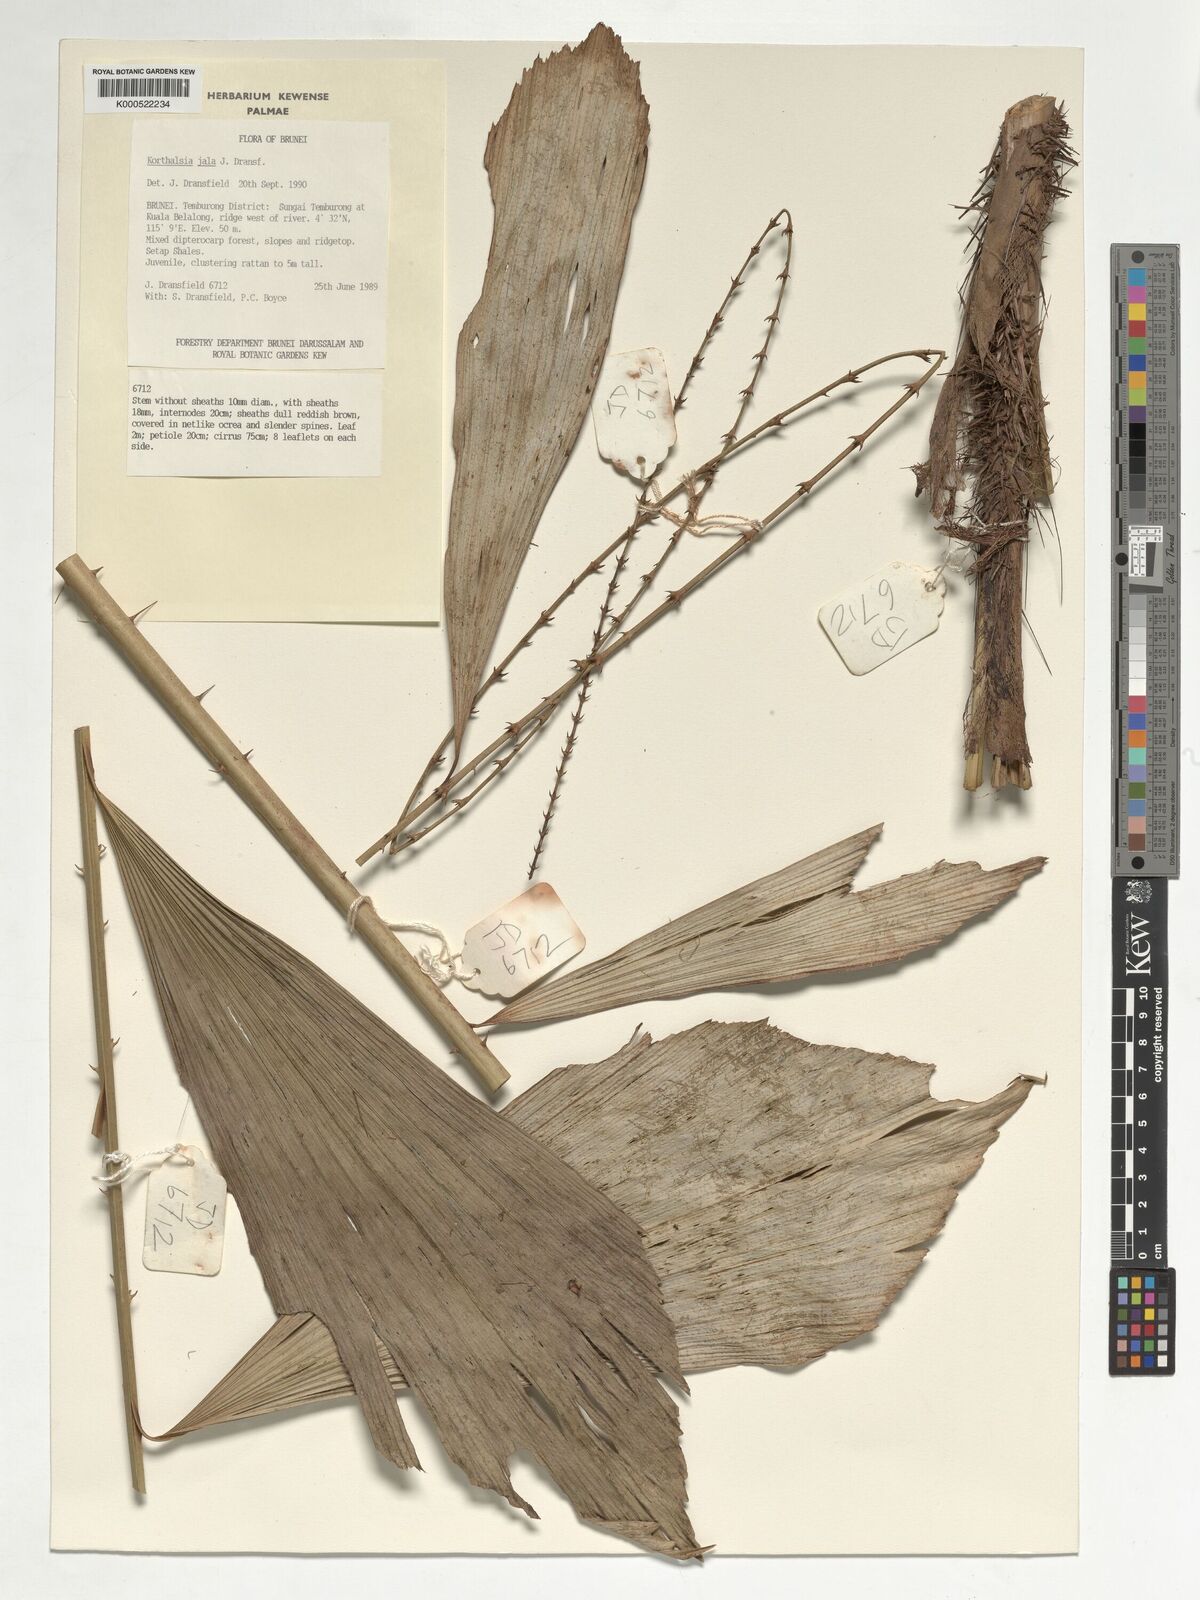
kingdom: Plantae
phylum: Tracheophyta
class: Liliopsida
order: Arecales
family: Arecaceae
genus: Korthalsia
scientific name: Korthalsia jala
